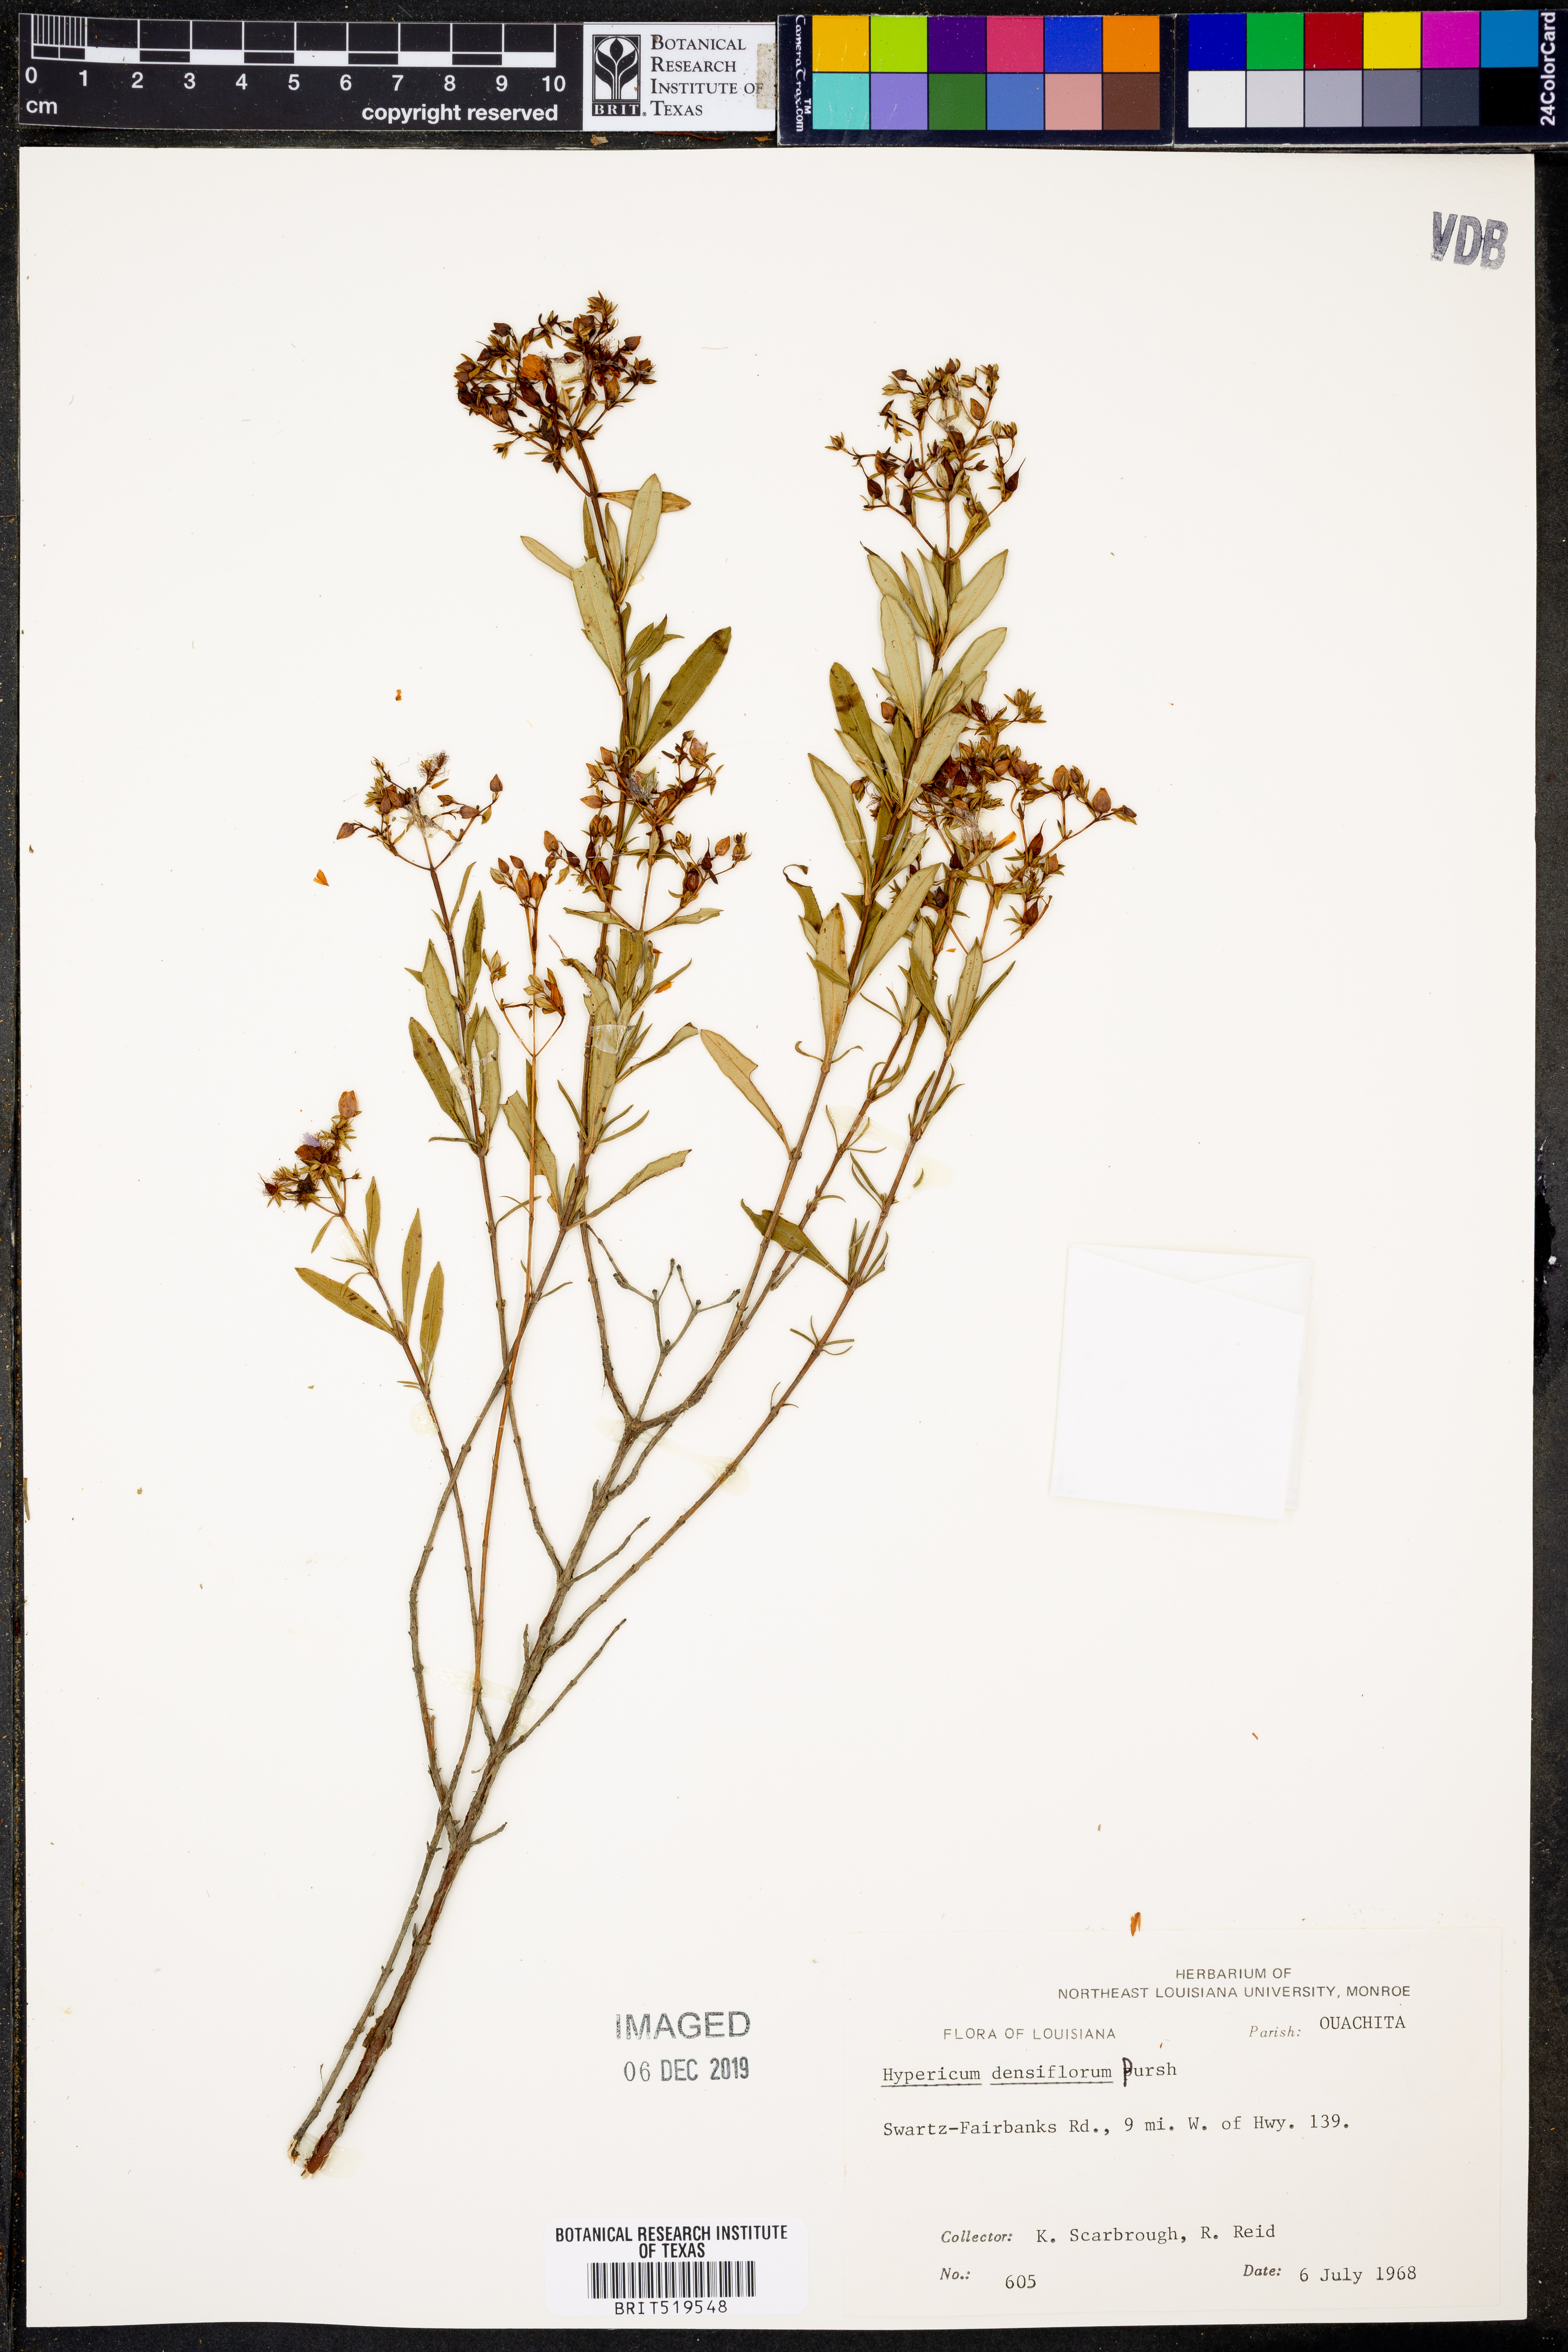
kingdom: Plantae
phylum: Tracheophyta
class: Magnoliopsida
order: Malpighiales
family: Hypericaceae
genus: Hypericum
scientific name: Hypericum densiflorum
